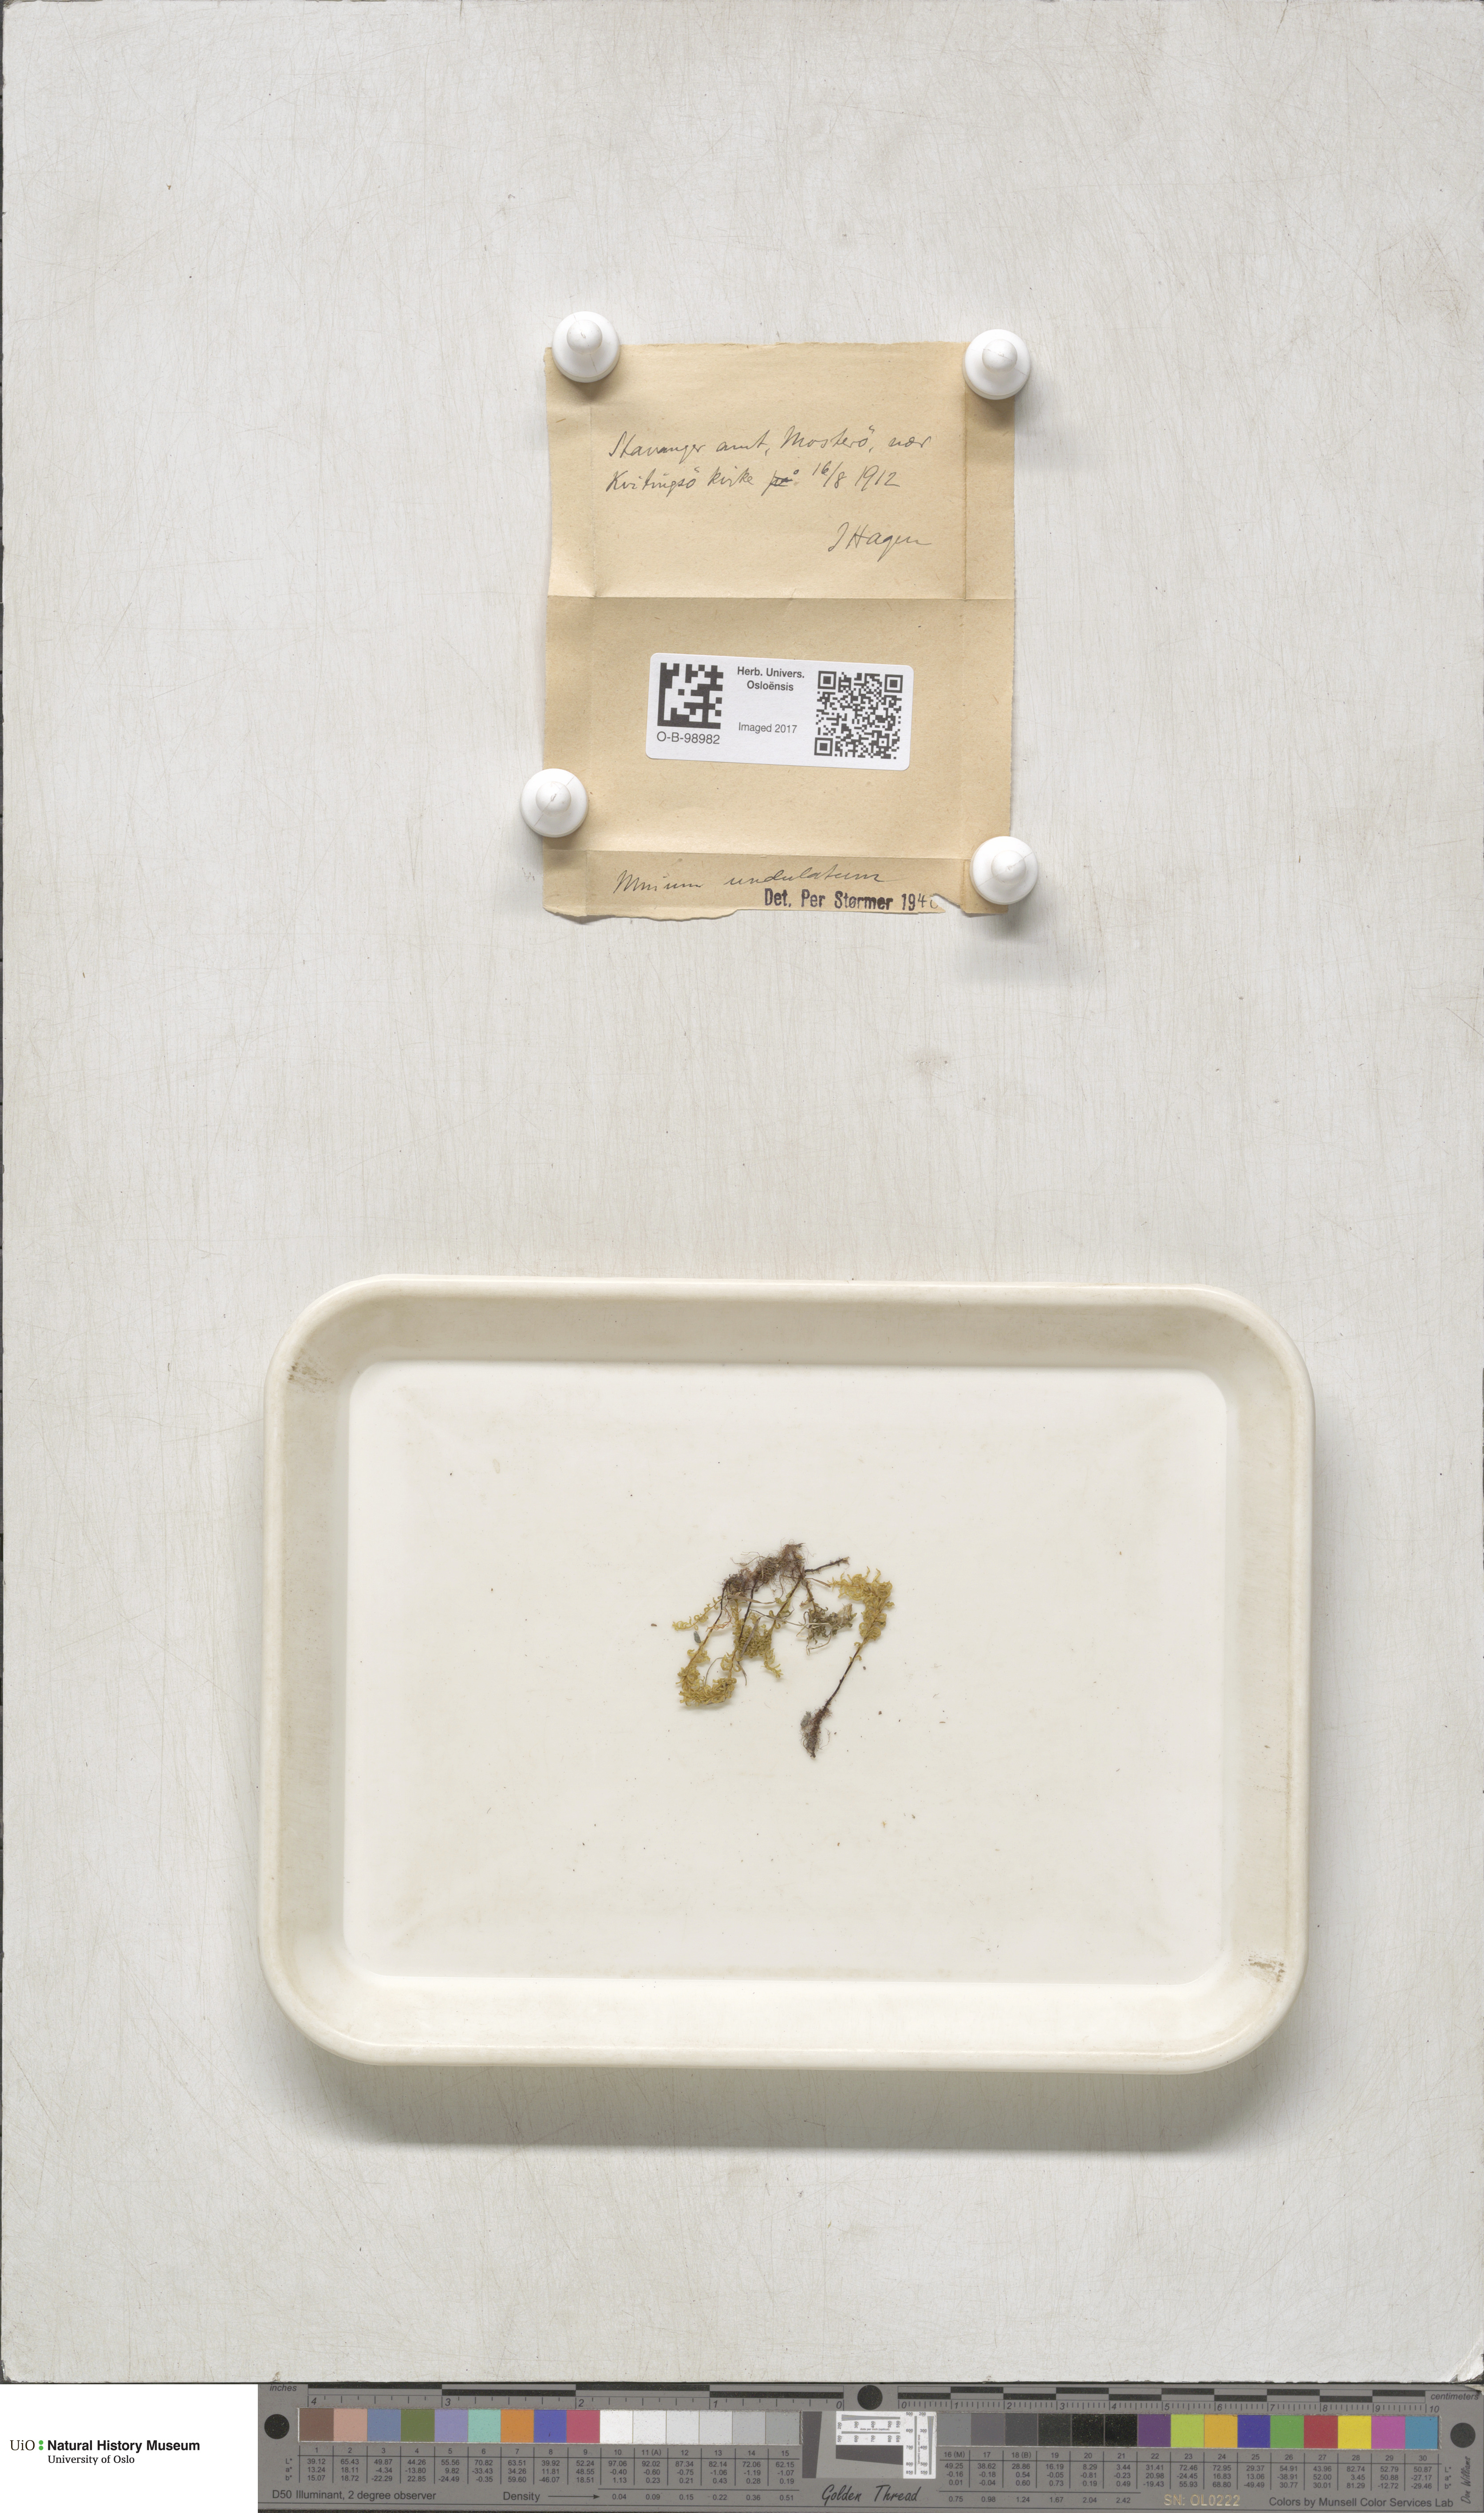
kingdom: Plantae
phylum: Bryophyta
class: Bryopsida
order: Bryales
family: Mniaceae
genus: Plagiomnium
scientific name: Plagiomnium undulatum
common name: Hart's-tongue thyme-moss
